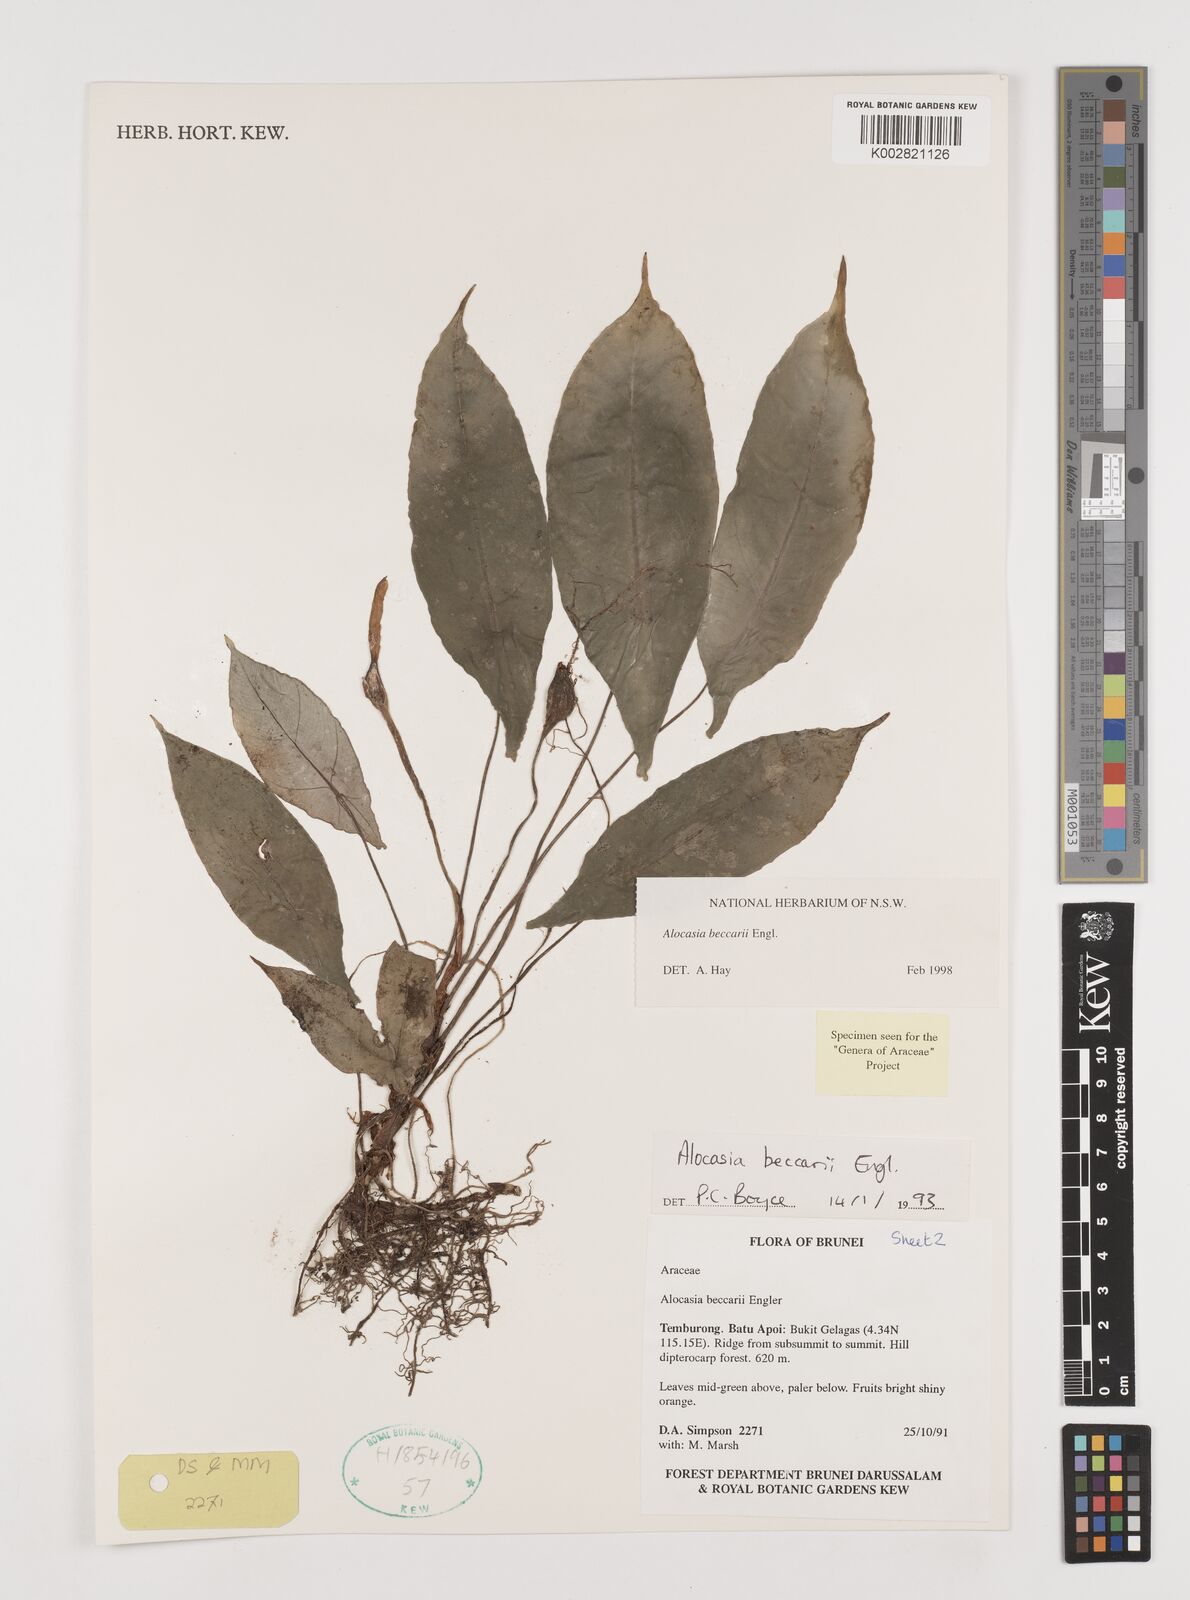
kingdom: Plantae
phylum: Tracheophyta
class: Liliopsida
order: Alismatales
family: Araceae
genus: Alocasia
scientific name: Alocasia beccarii
